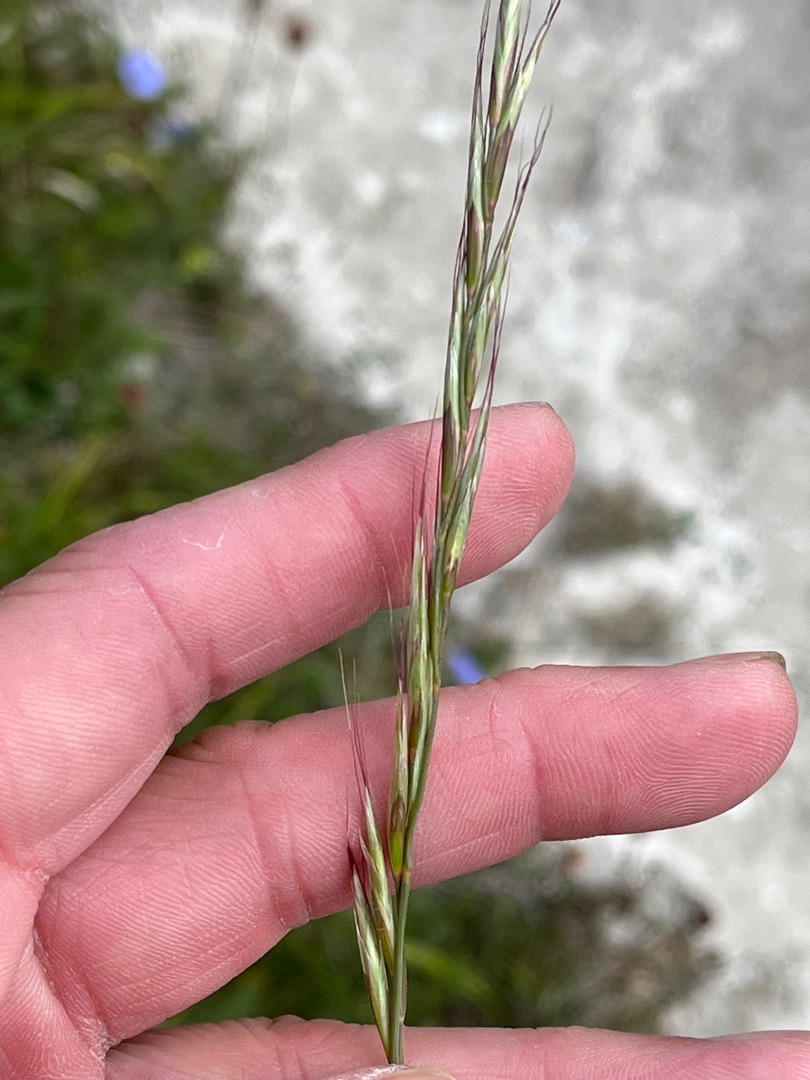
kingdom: Plantae
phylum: Tracheophyta
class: Liliopsida
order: Poales
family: Poaceae
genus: Helictochloa
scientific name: Helictochloa pratensis
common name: Eng-havre
